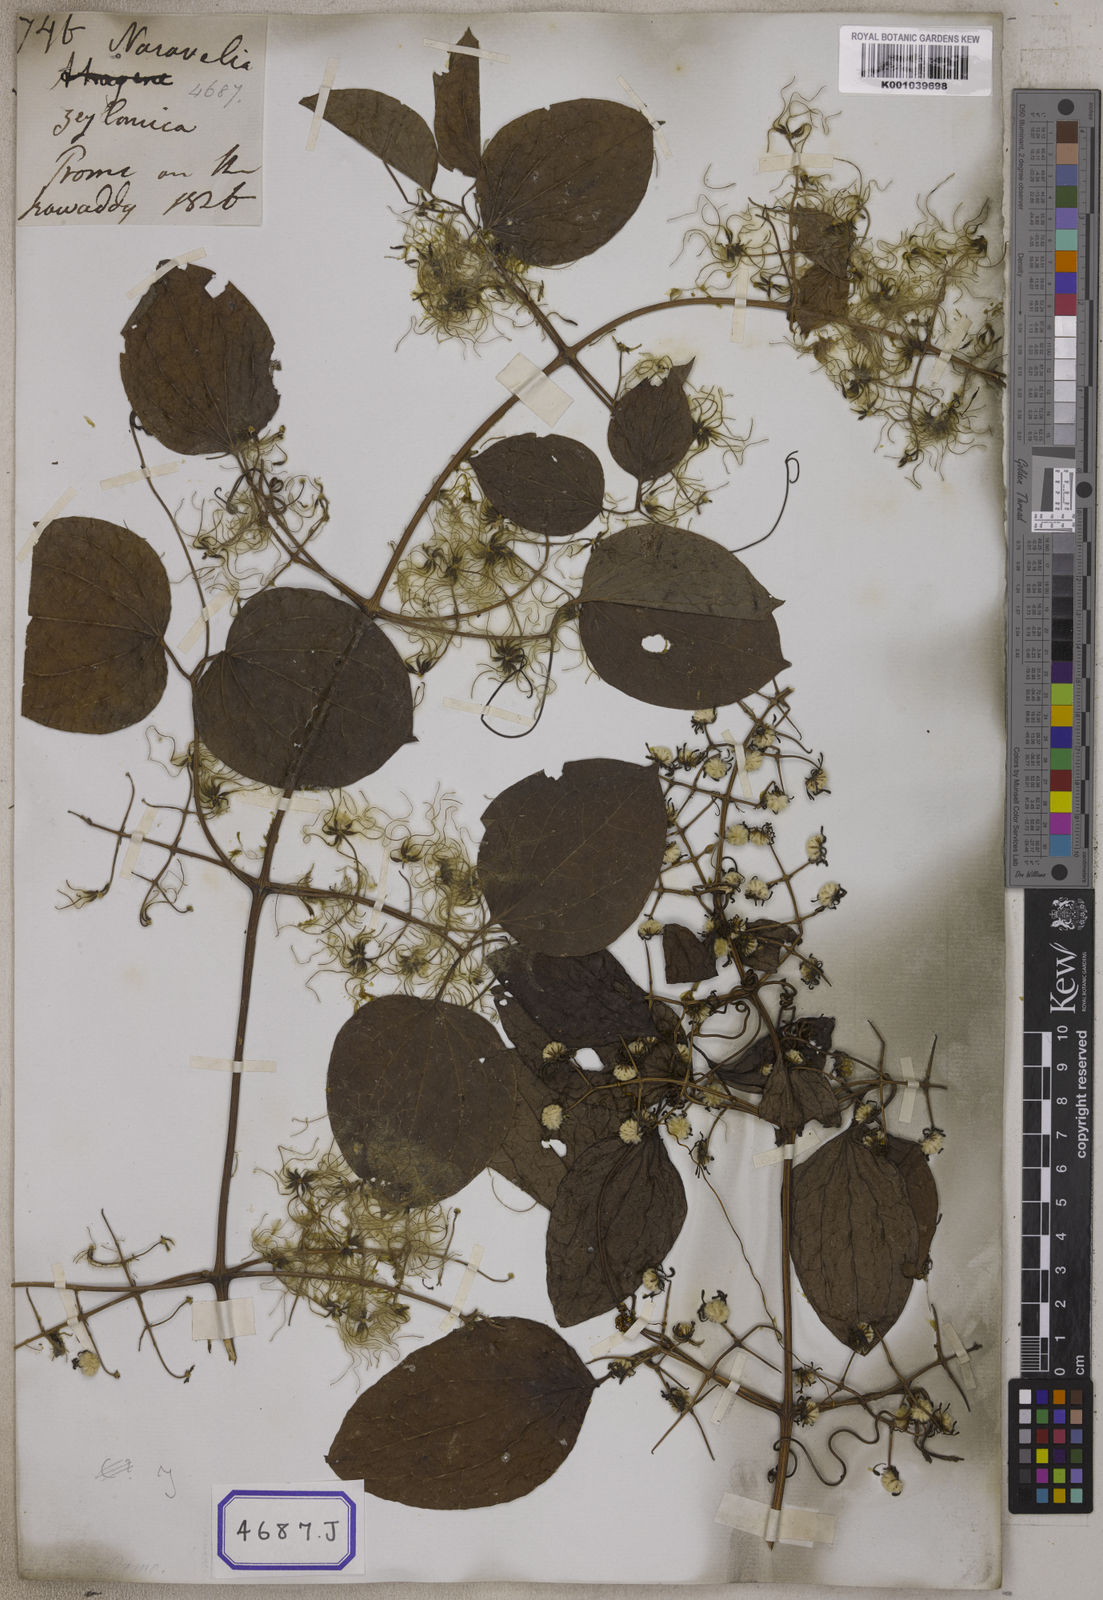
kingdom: Plantae
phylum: Tracheophyta
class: Magnoliopsida
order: Ranunculales
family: Ranunculaceae
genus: Clematis
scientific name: Clematis zeylanica
